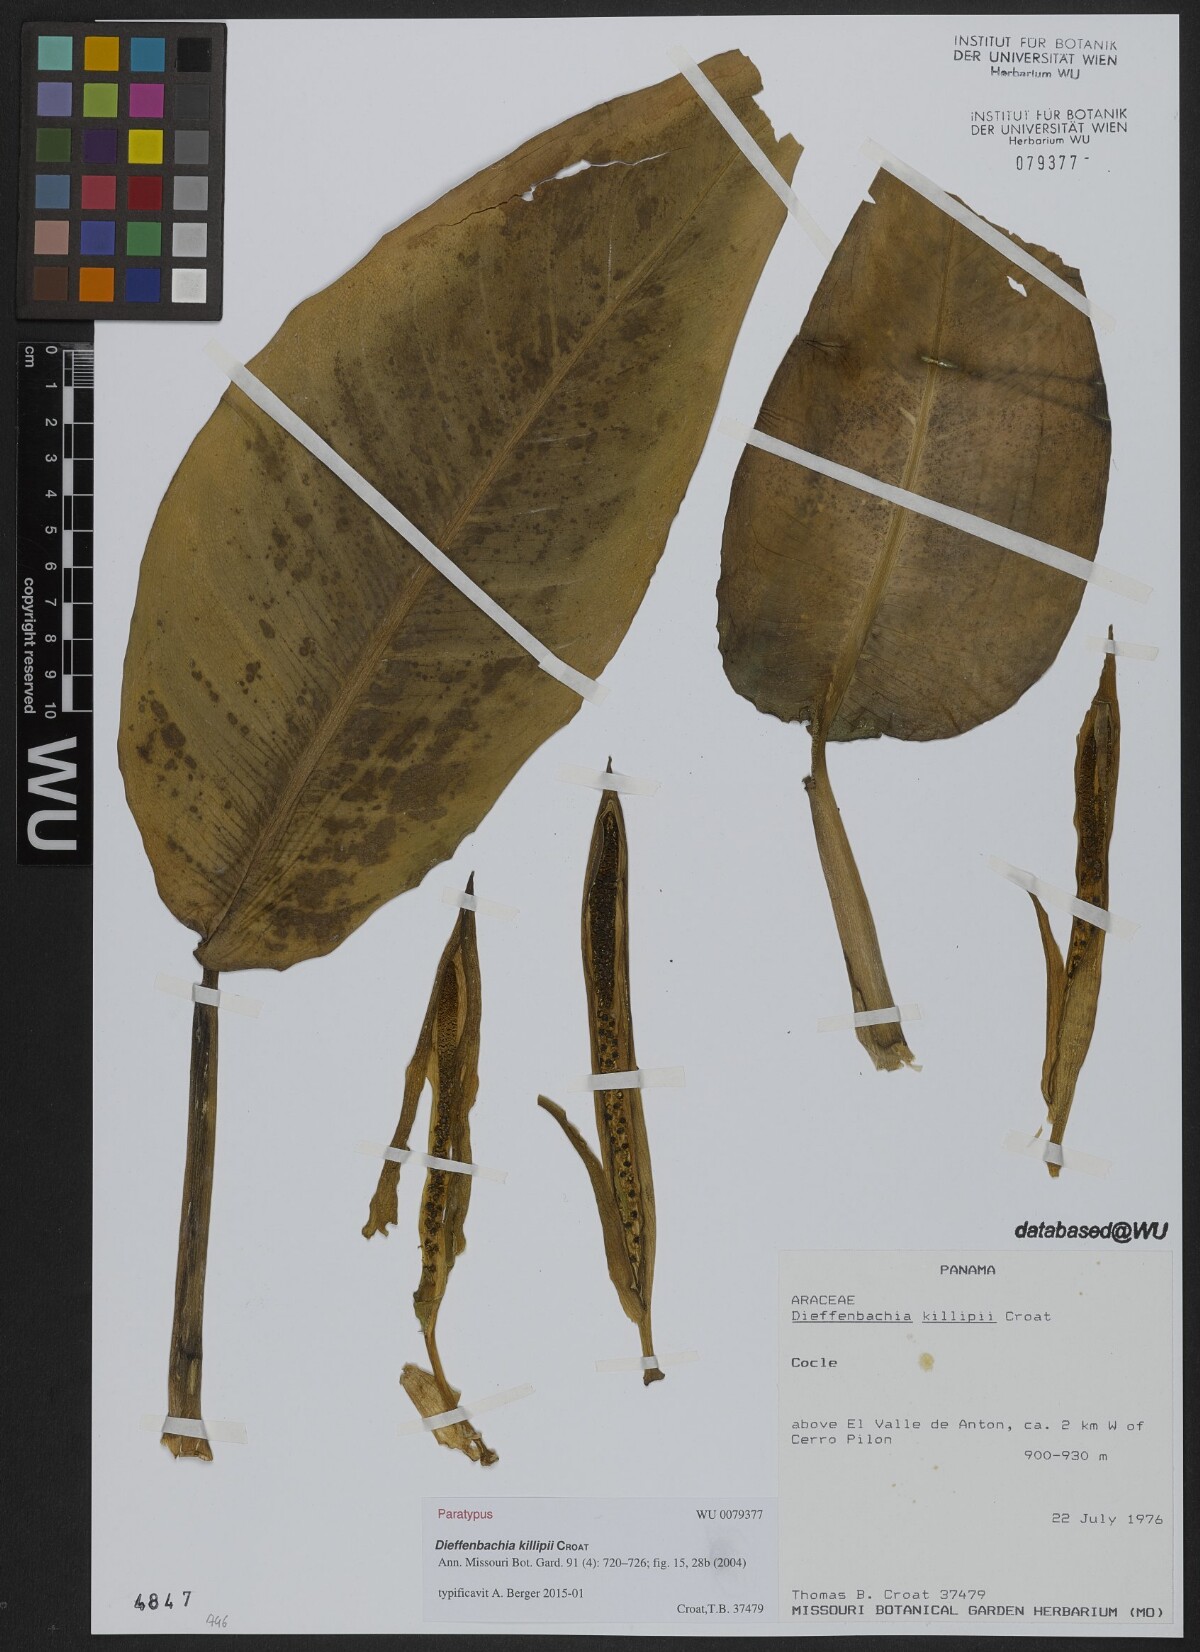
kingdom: Plantae
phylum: Tracheophyta
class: Liliopsida
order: Alismatales
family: Araceae
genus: Dieffenbachia
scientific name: Dieffenbachia killipii
